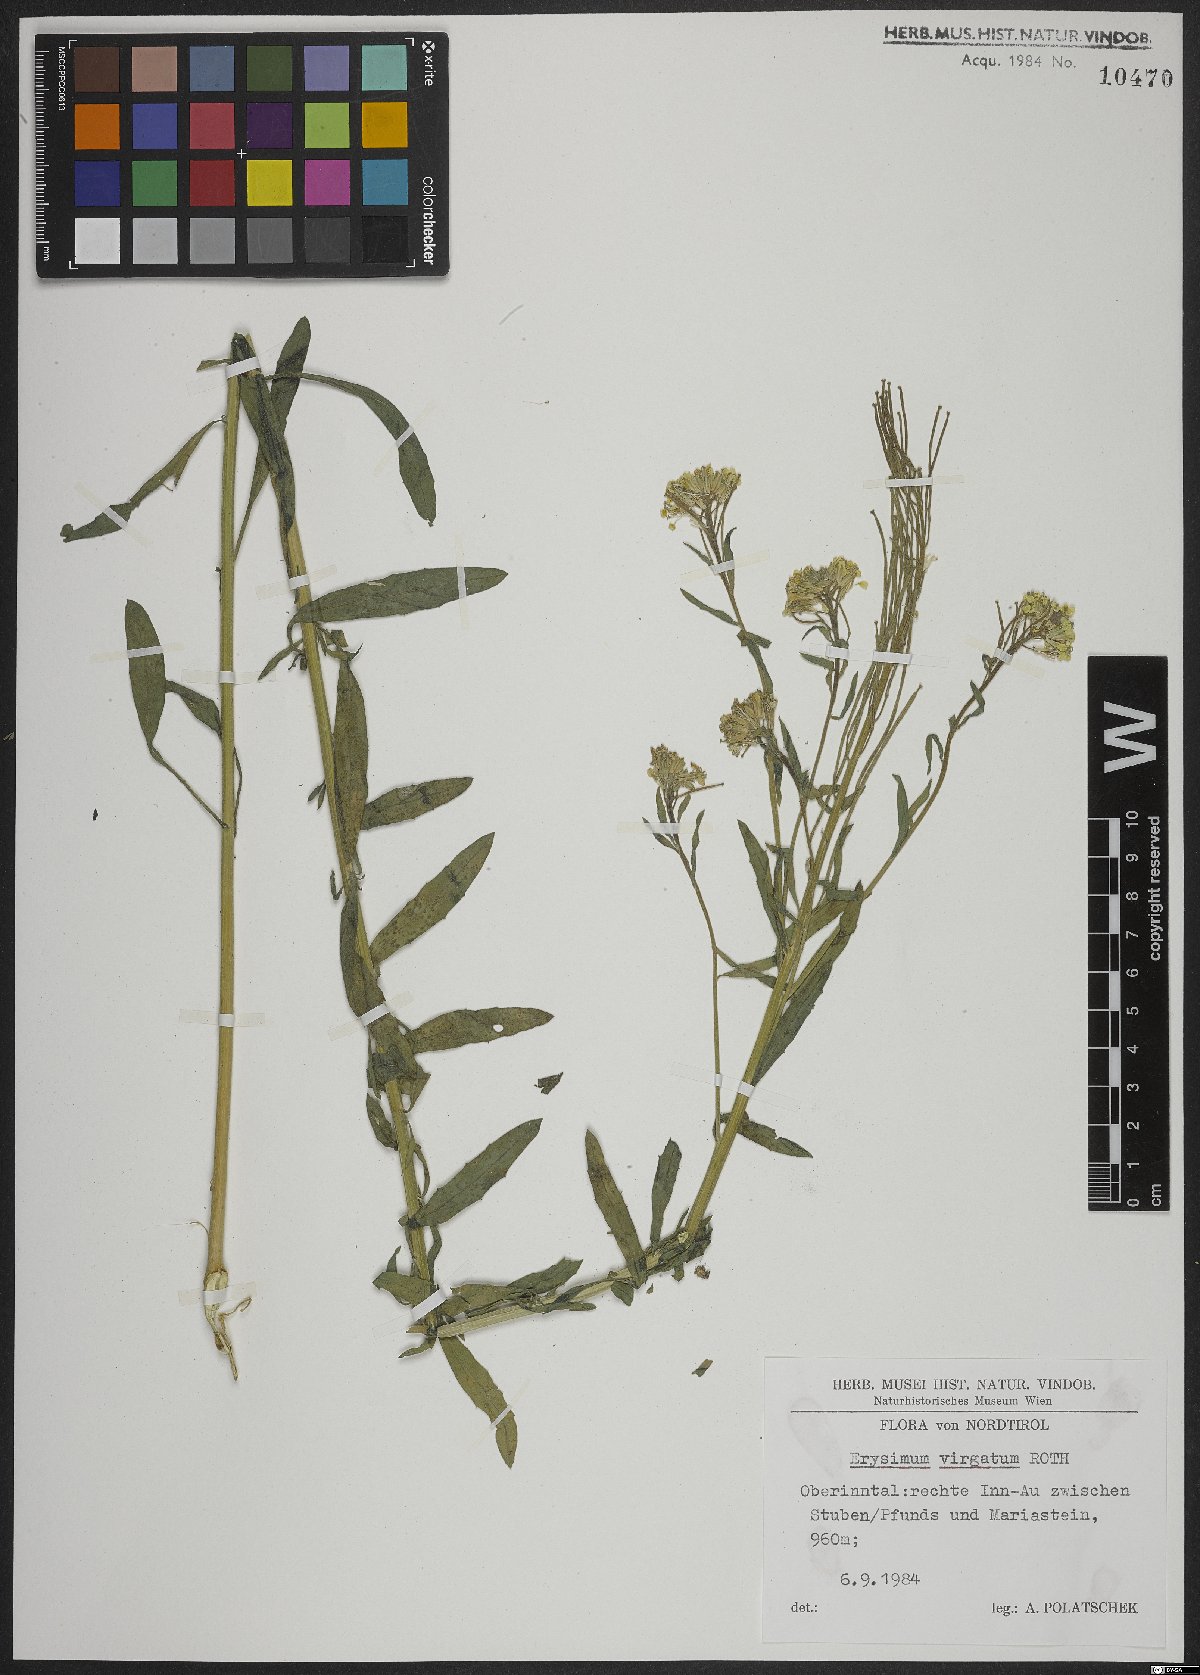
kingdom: Plantae
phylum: Tracheophyta
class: Magnoliopsida
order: Brassicales
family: Brassicaceae
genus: Erysimum
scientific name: Erysimum virgatum
